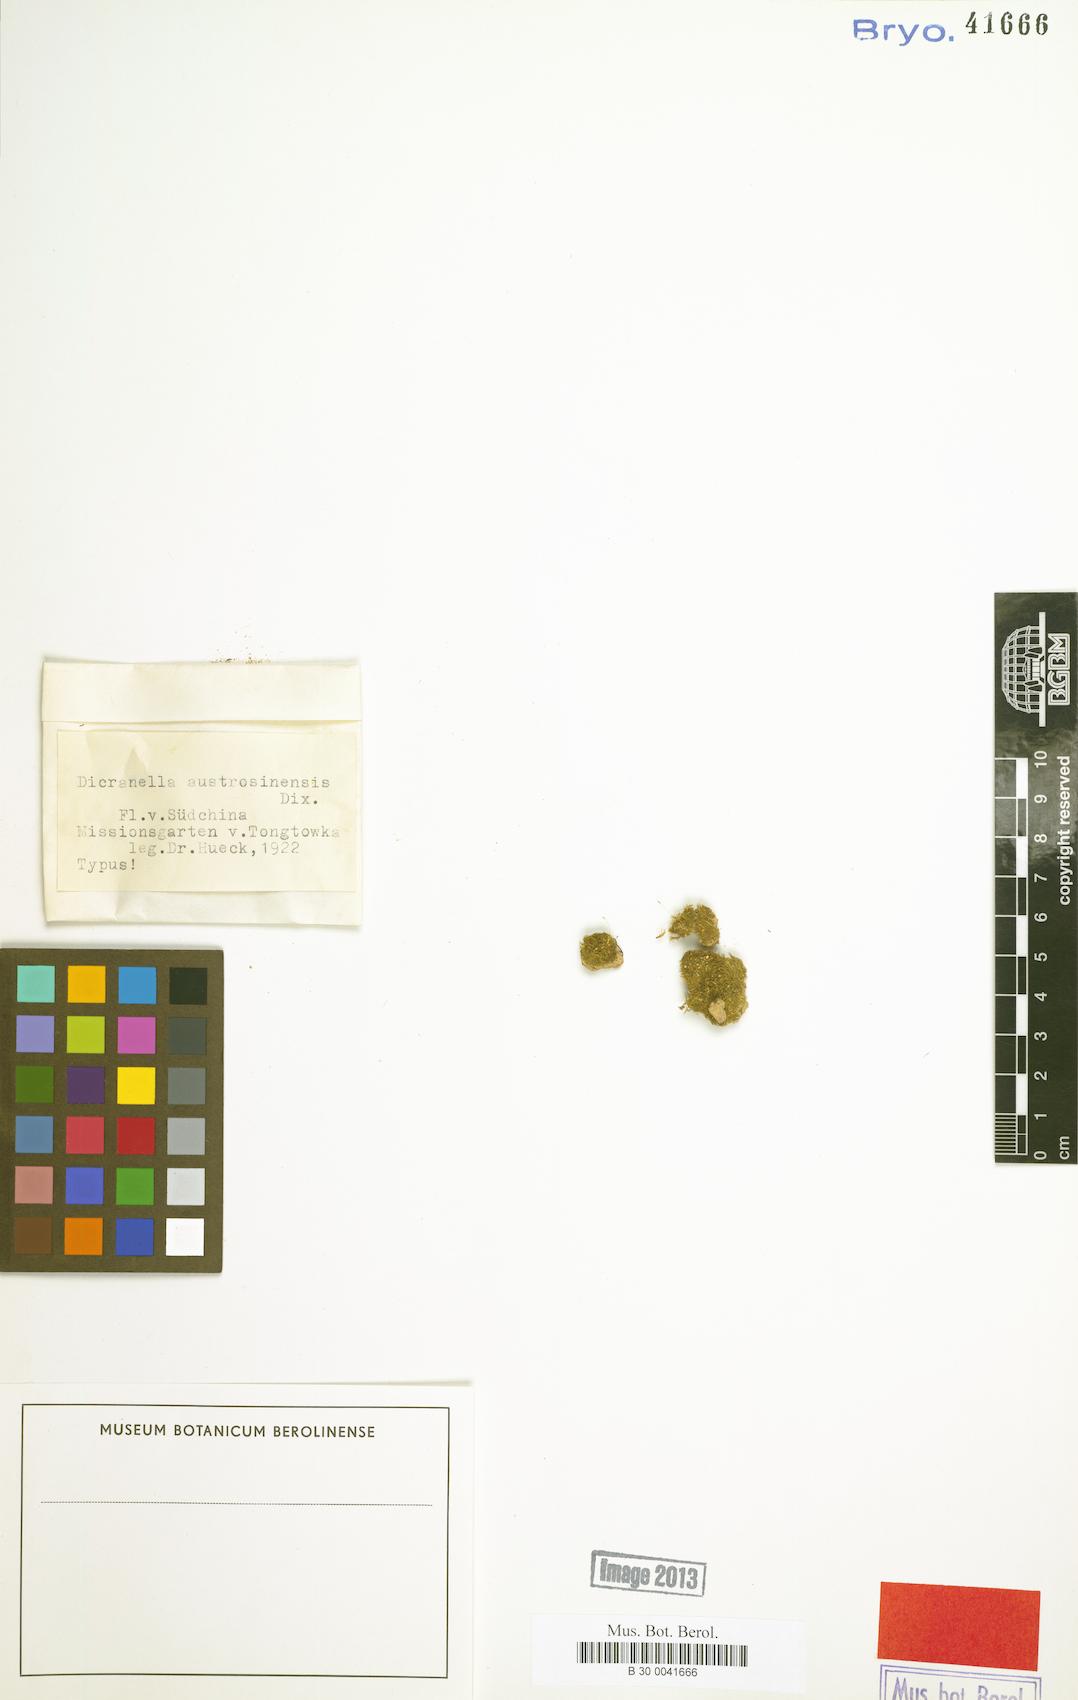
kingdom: Plantae
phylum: Bryophyta
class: Bryopsida
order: Dicranales
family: Dicranellaceae
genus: Dicranella
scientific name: Dicranella austrosinensis
